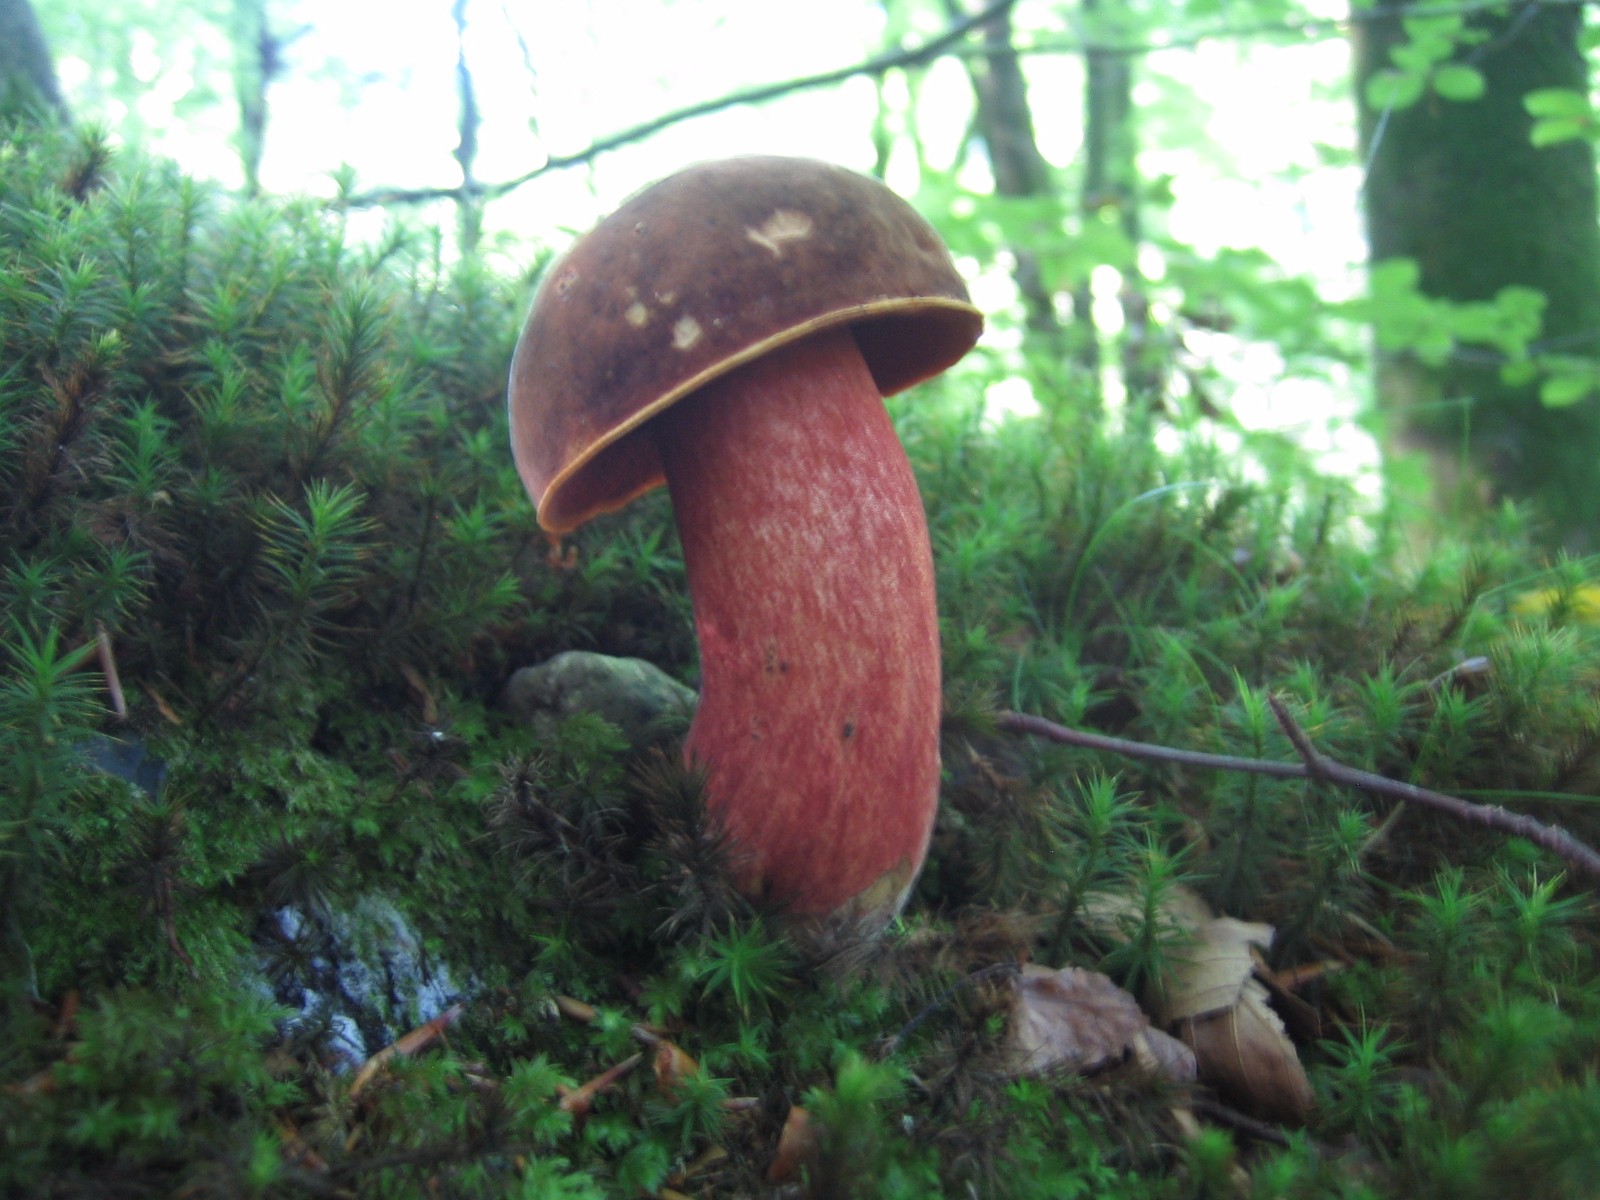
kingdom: Fungi
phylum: Basidiomycota
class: Agaricomycetes
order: Boletales
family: Boletaceae
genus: Neoboletus
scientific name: Neoboletus erythropus
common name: punktstokket indigorørhat
